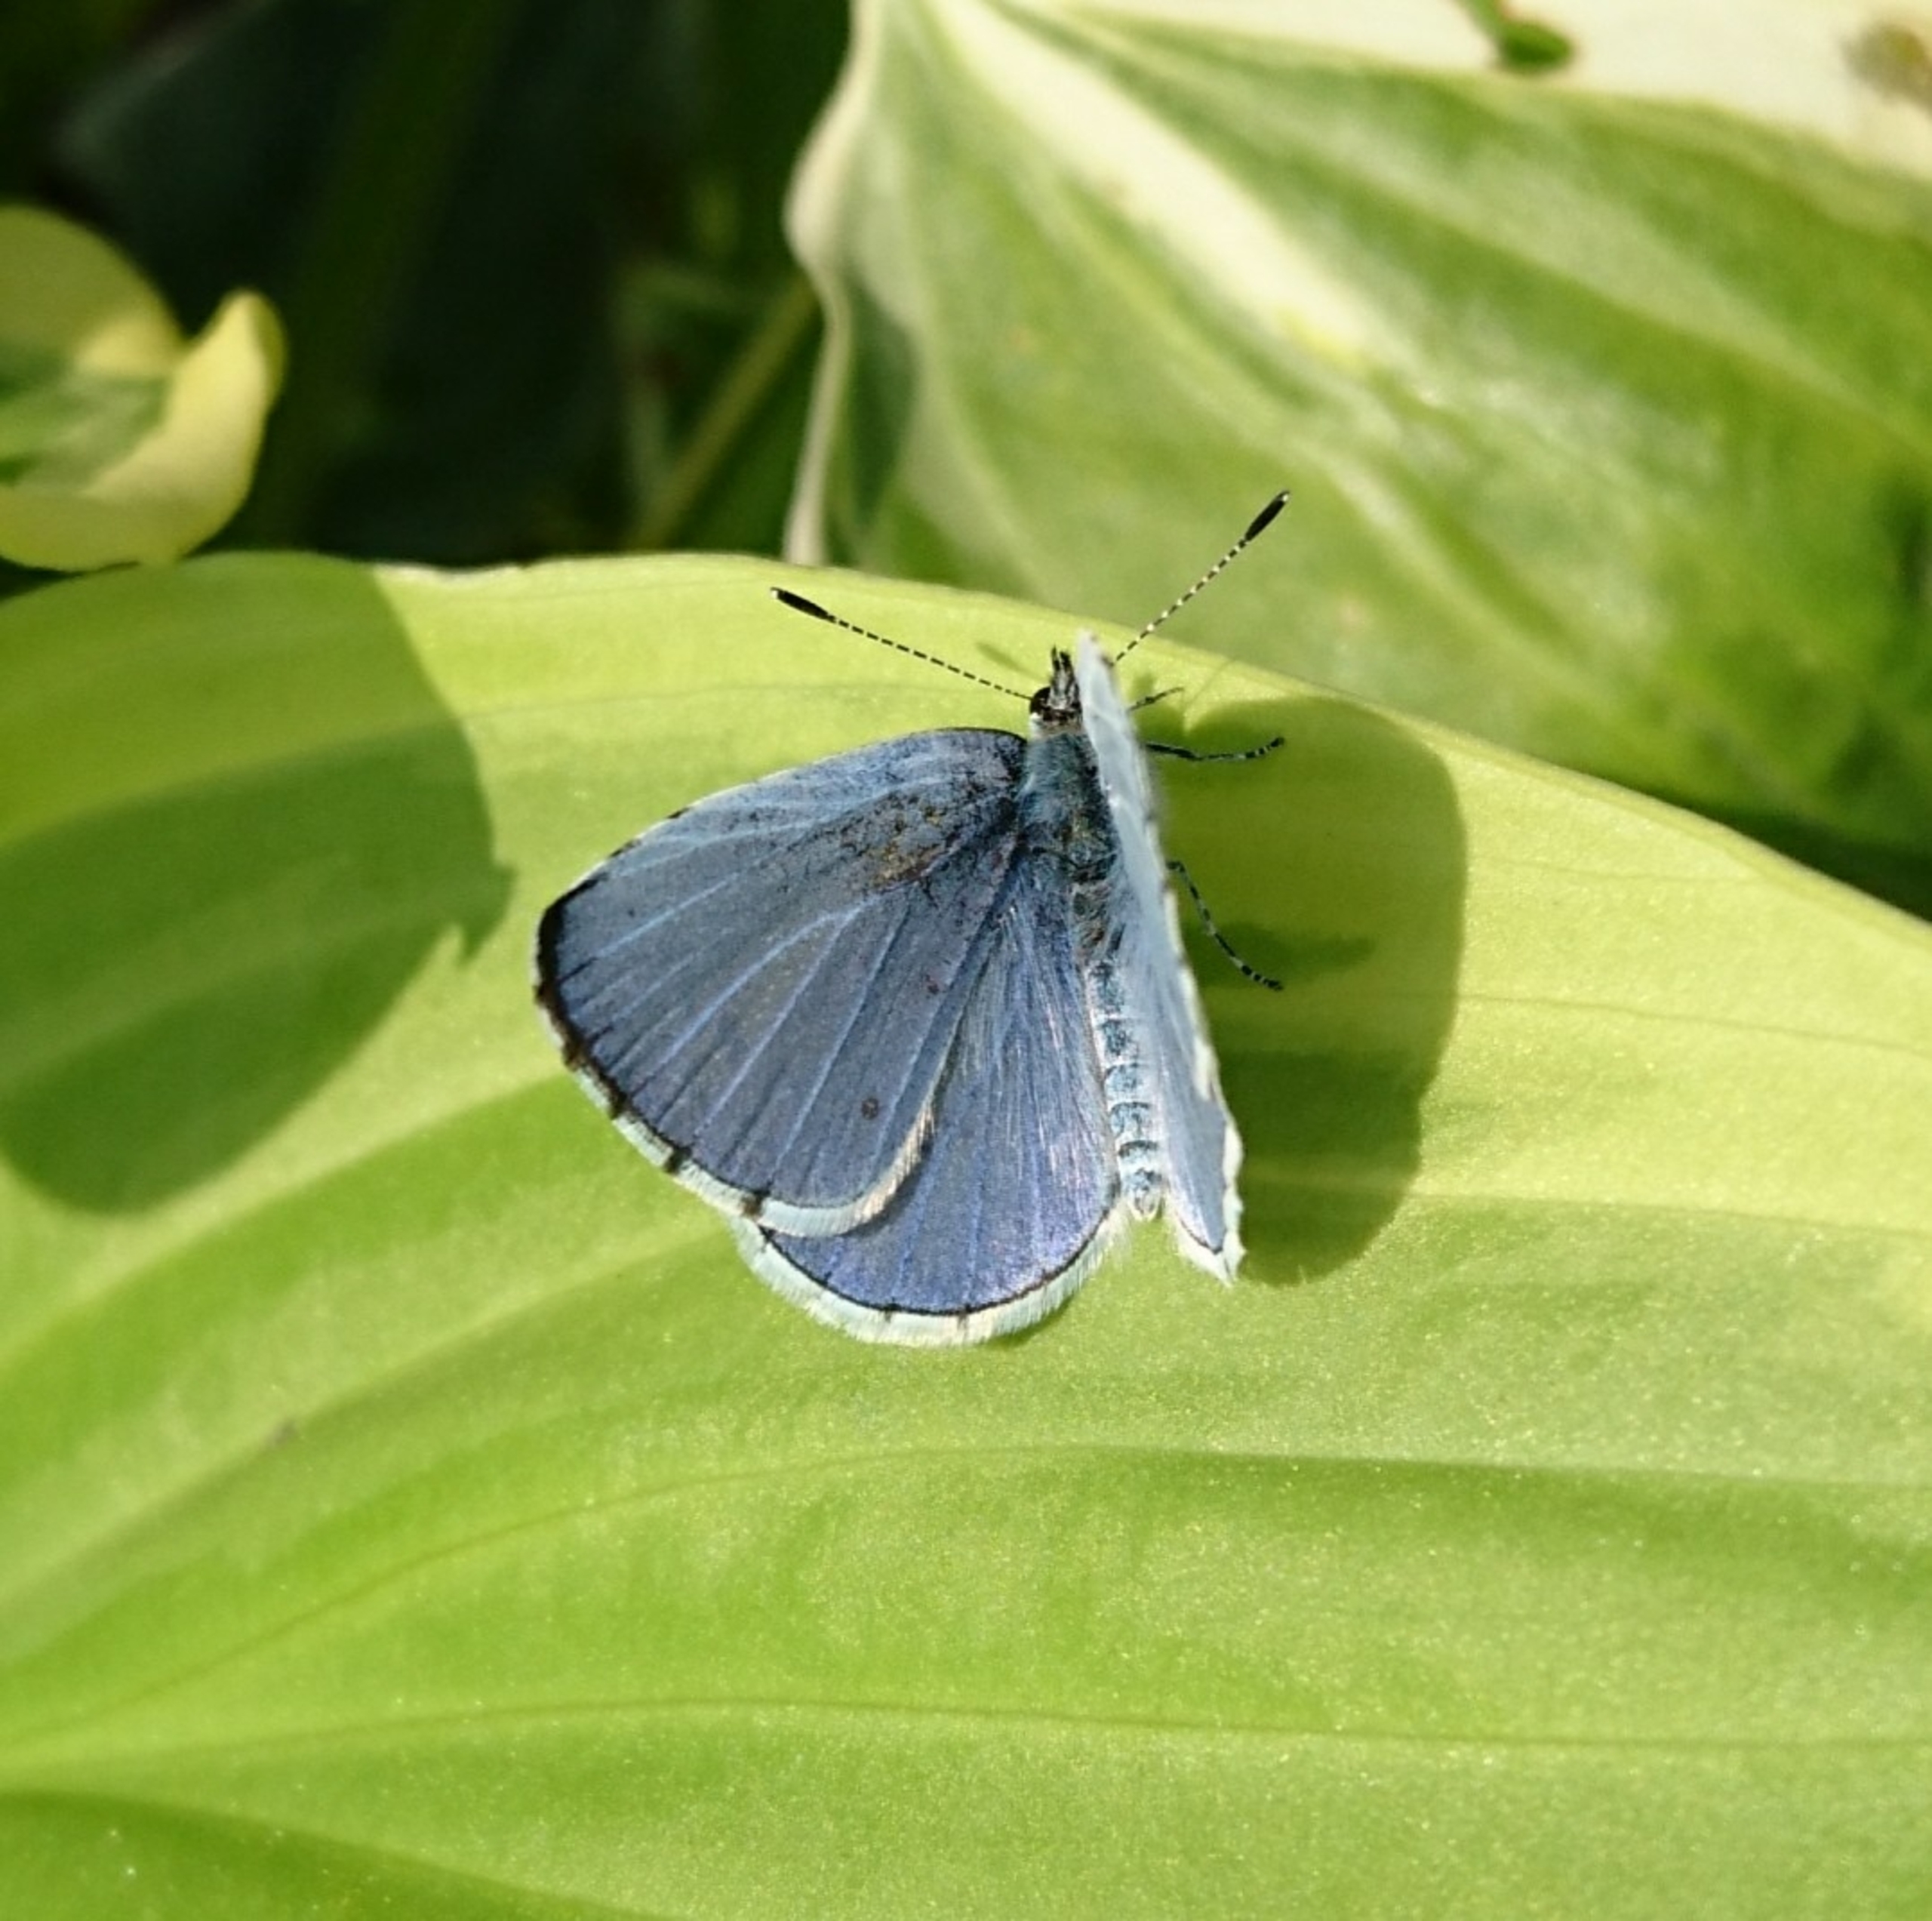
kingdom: Animalia
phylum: Arthropoda
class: Insecta
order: Lepidoptera
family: Lycaenidae
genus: Celastrina
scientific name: Celastrina argiolus
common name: Skovblåfugl
